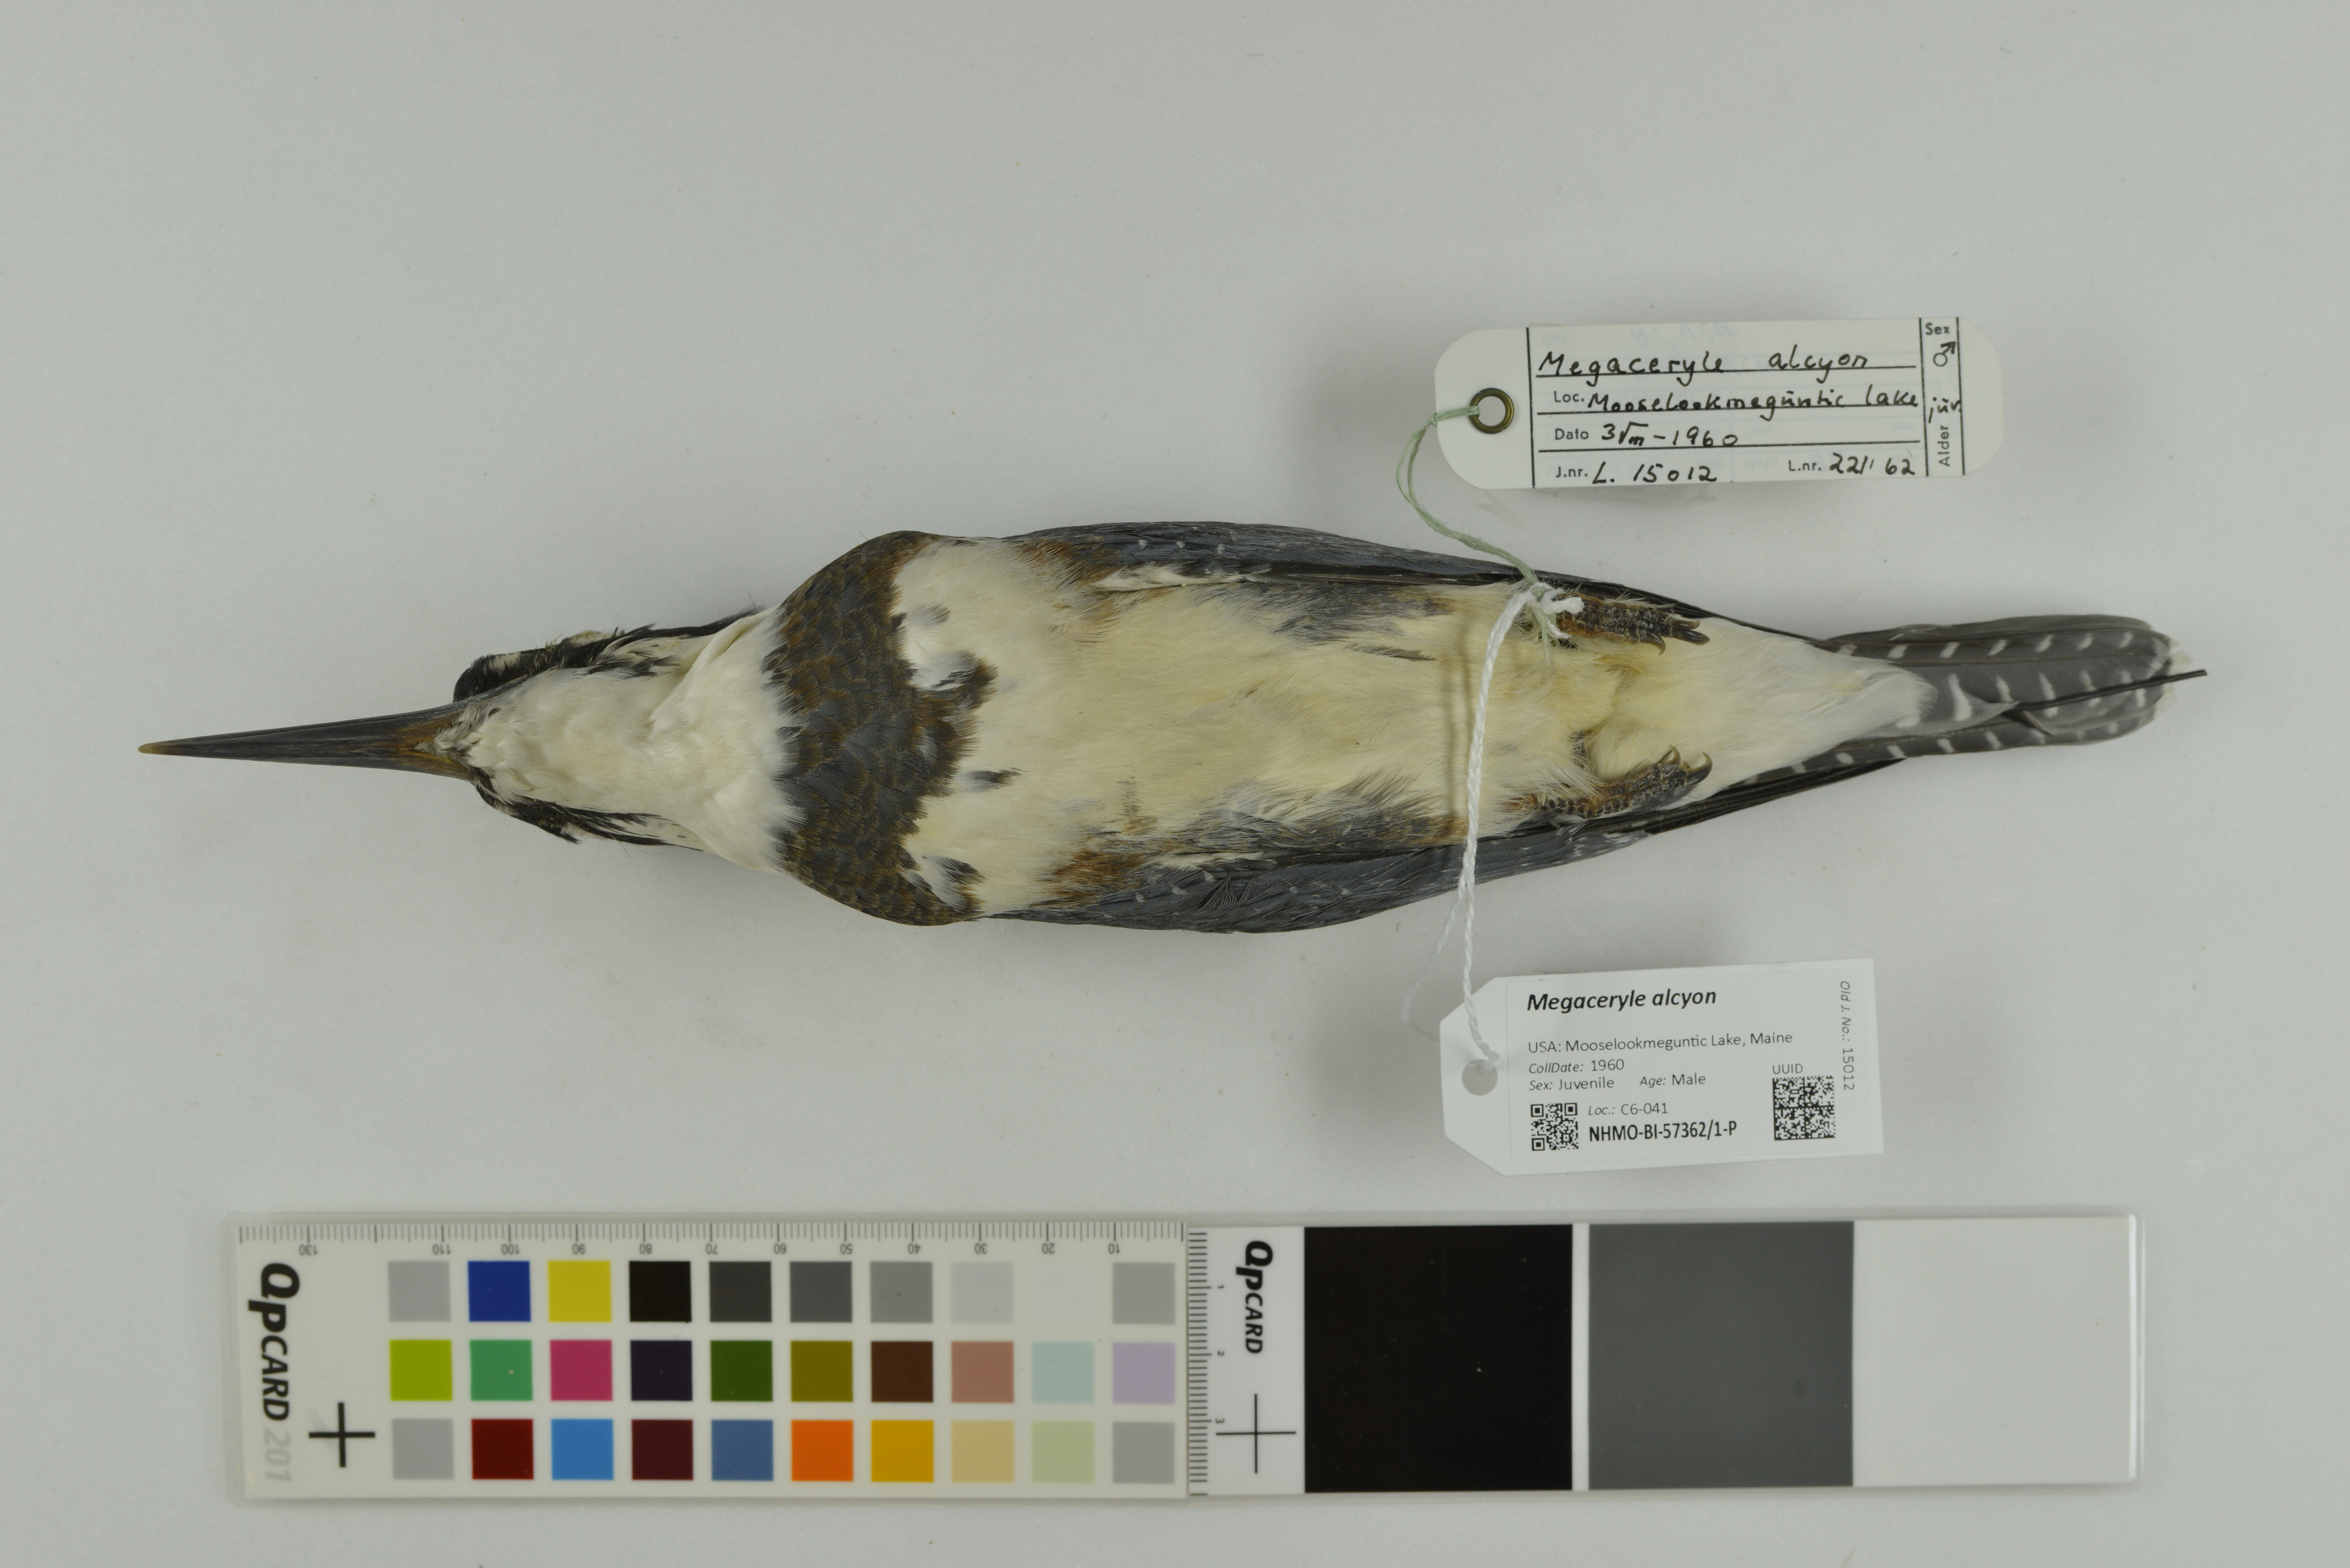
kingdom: Animalia
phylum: Chordata
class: Aves
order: Coraciiformes
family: Alcedinidae
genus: Megaceryle
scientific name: Megaceryle alcyon
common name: Belted kingfisher
